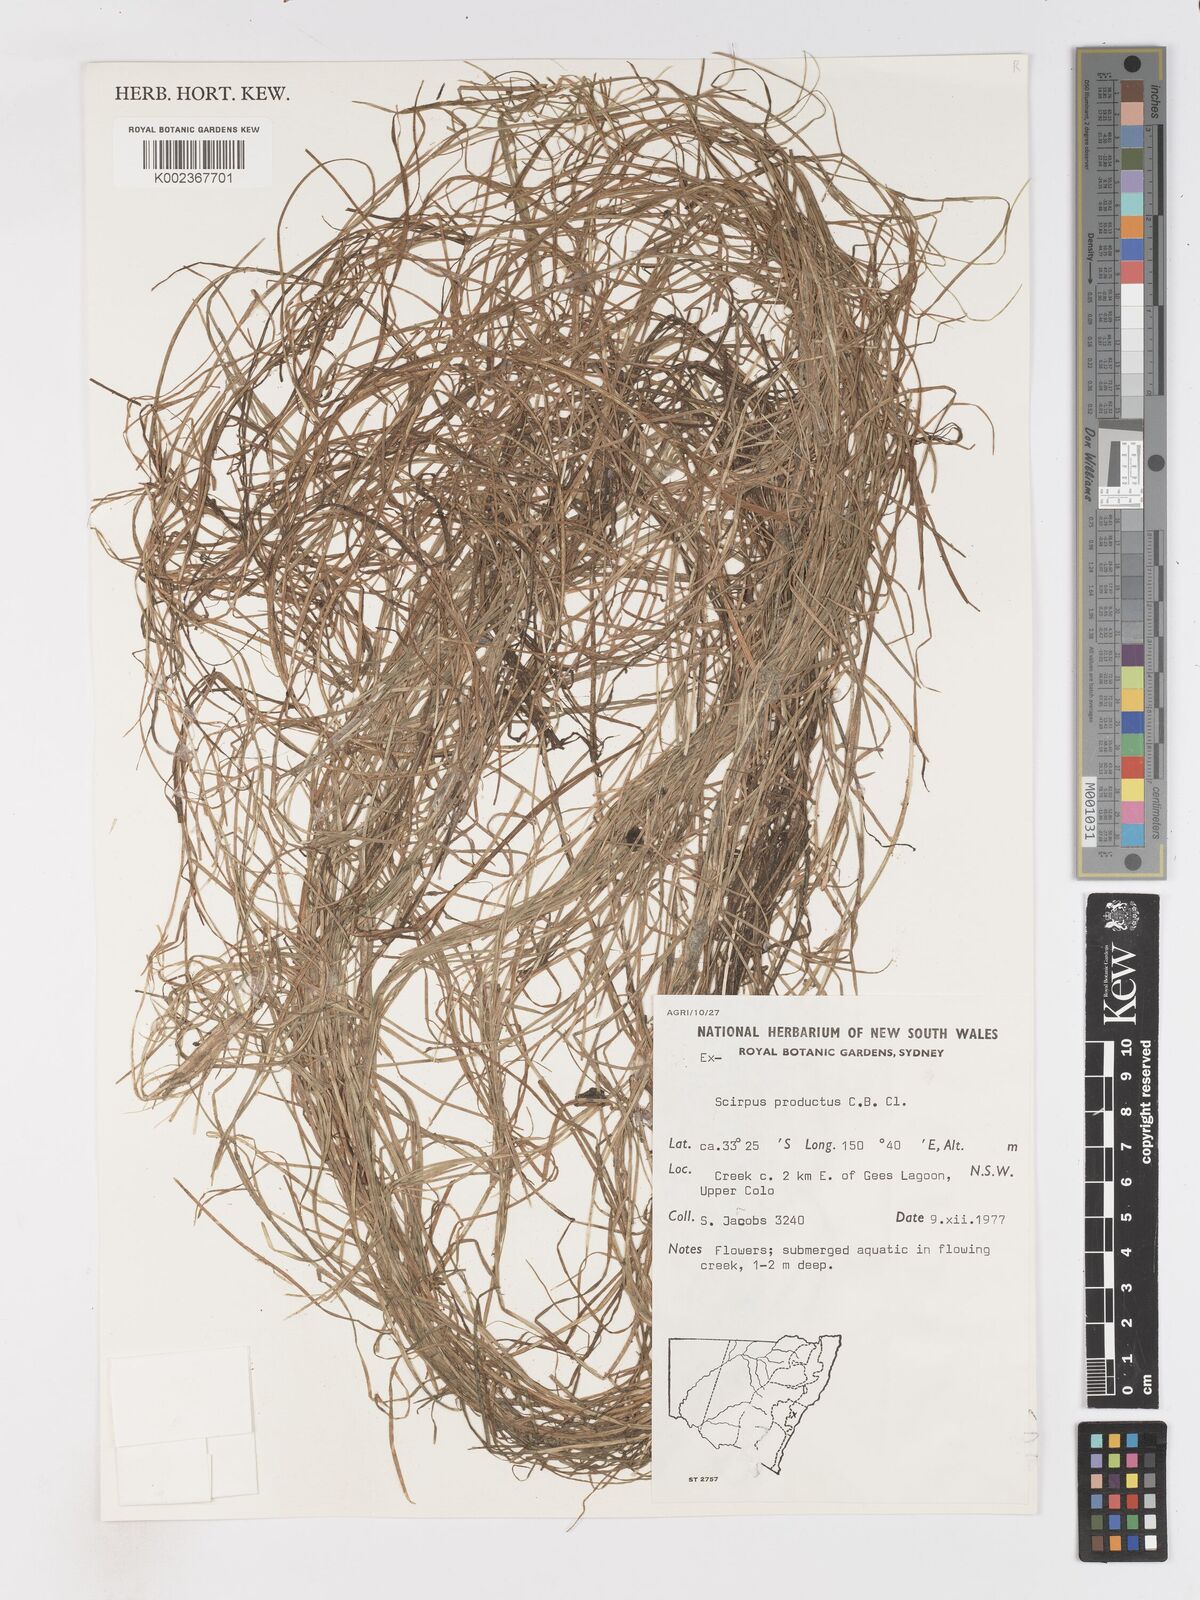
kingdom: Plantae
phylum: Tracheophyta
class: Liliopsida
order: Poales
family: Cyperaceae
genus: Isolepis
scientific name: Isolepis producta
